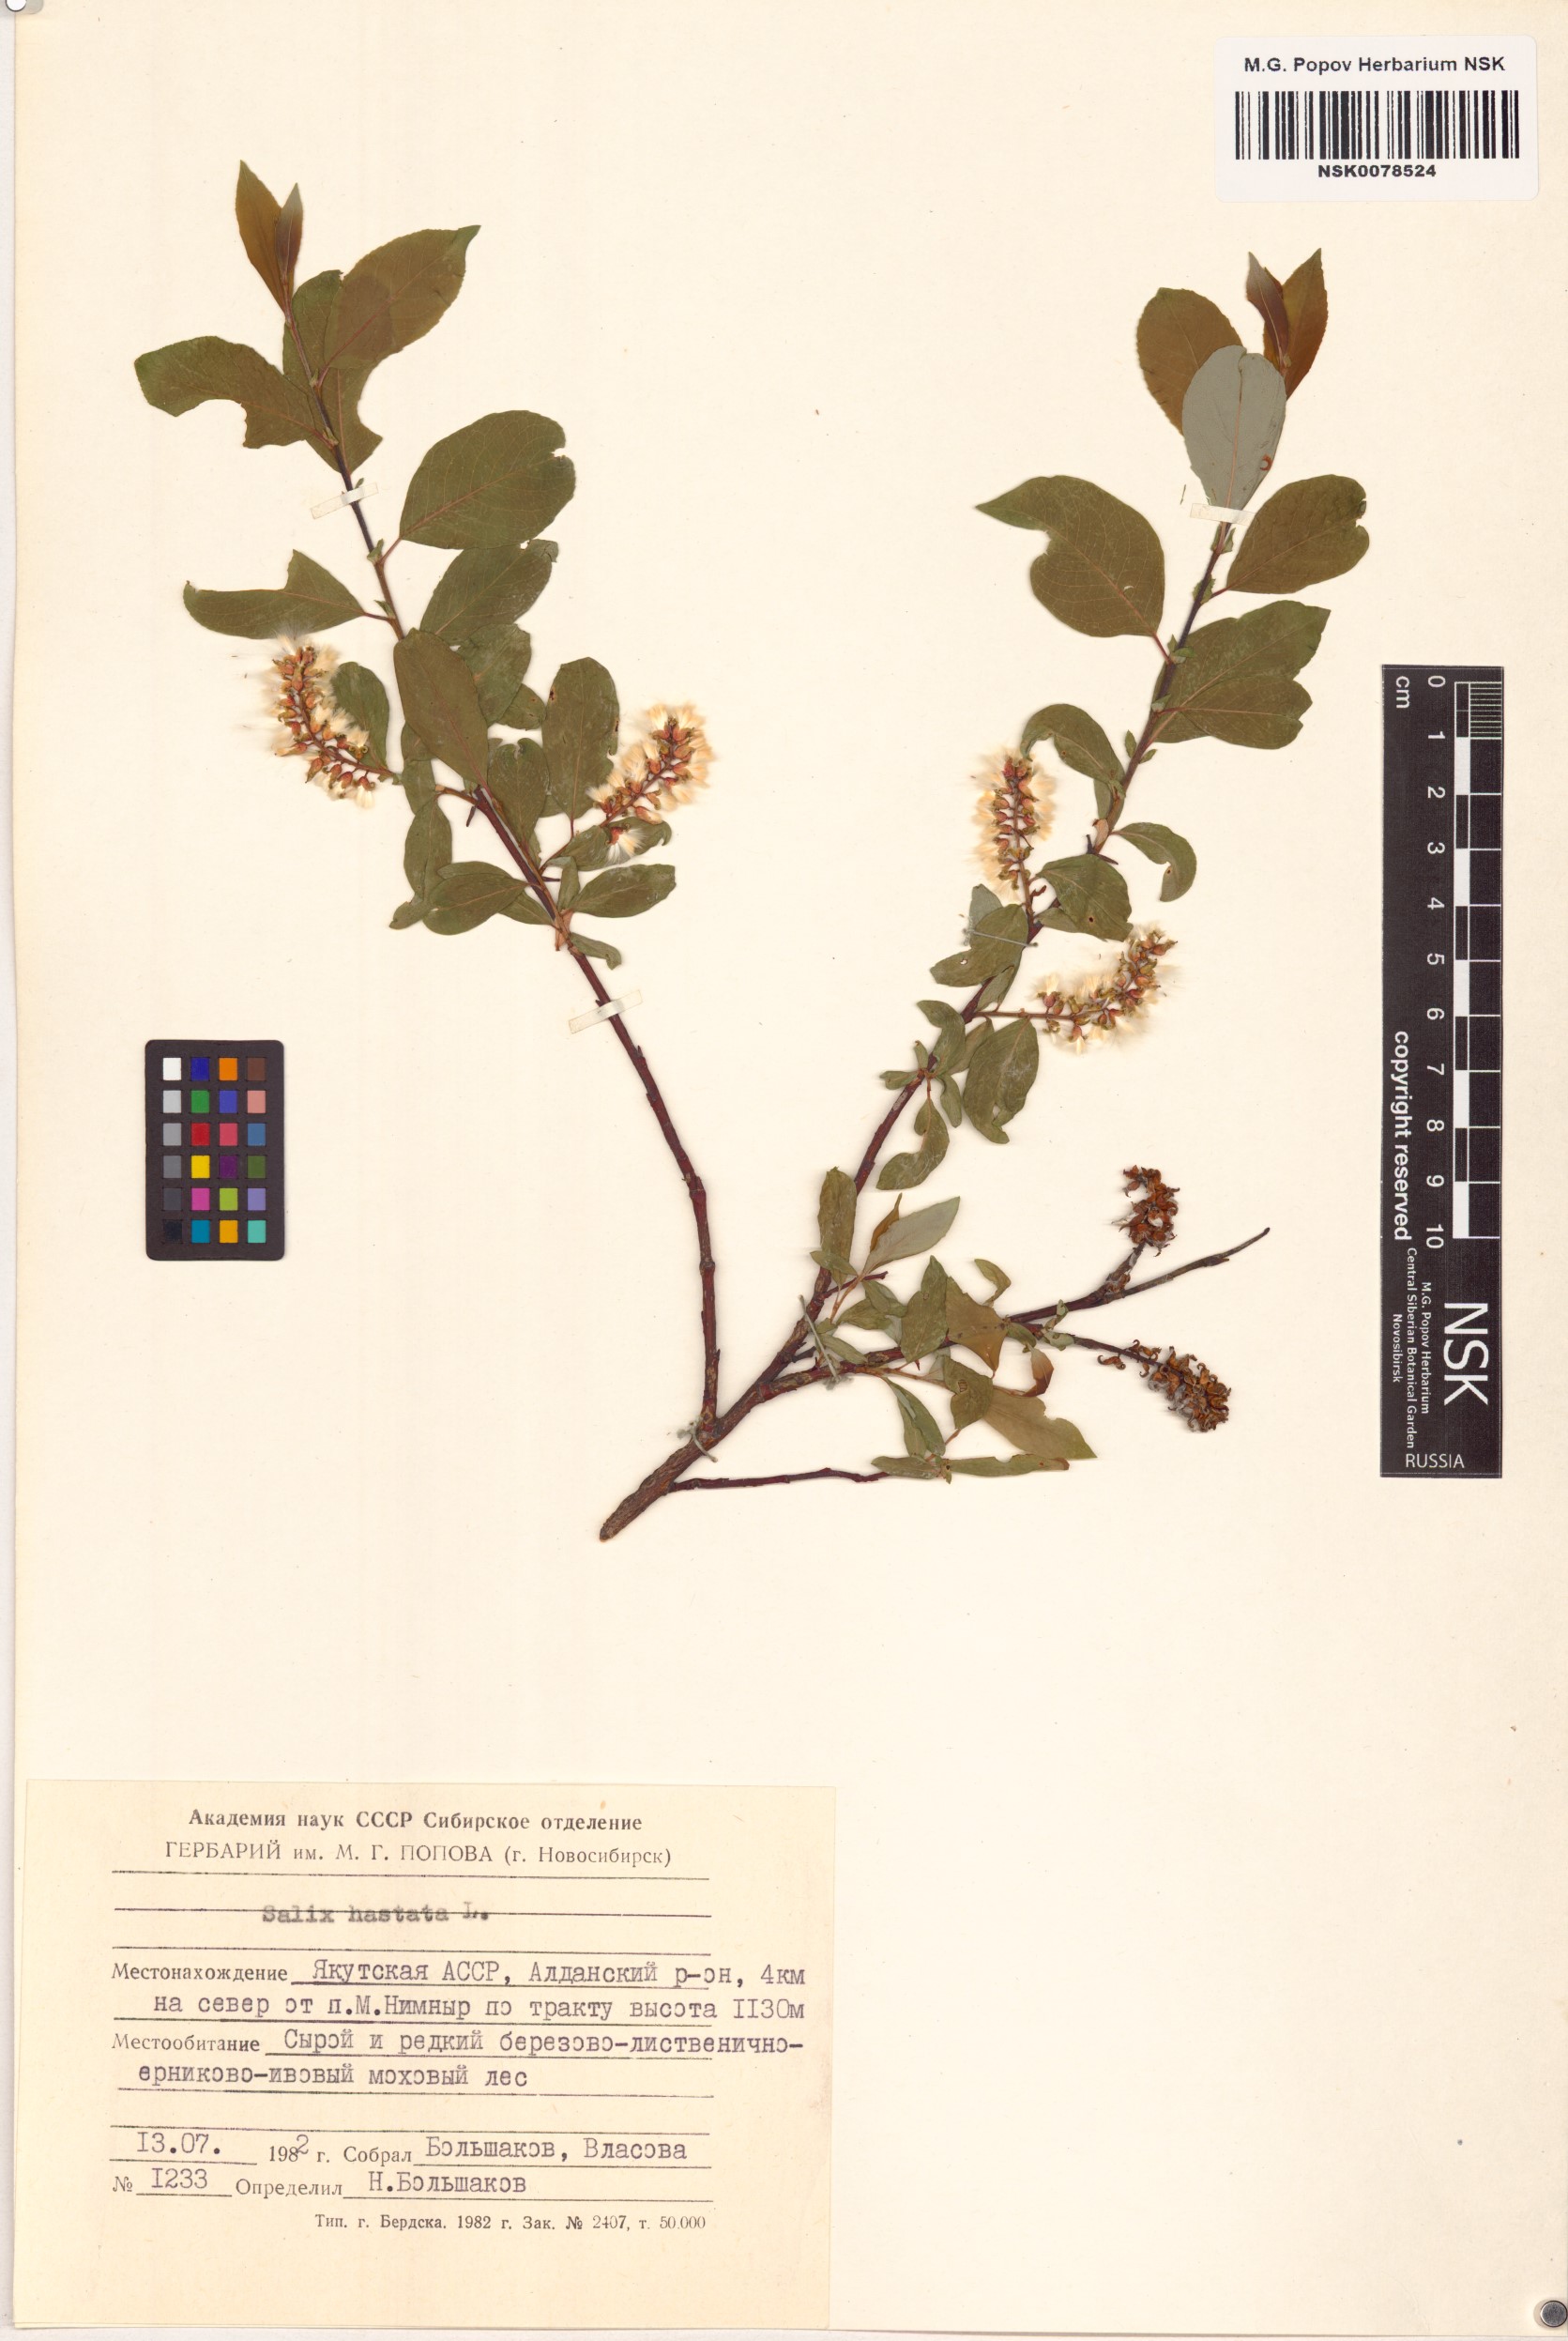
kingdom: Plantae
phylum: Tracheophyta
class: Magnoliopsida
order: Malpighiales
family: Salicaceae
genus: Salix
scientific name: Salix hastata
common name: Halberd willow
